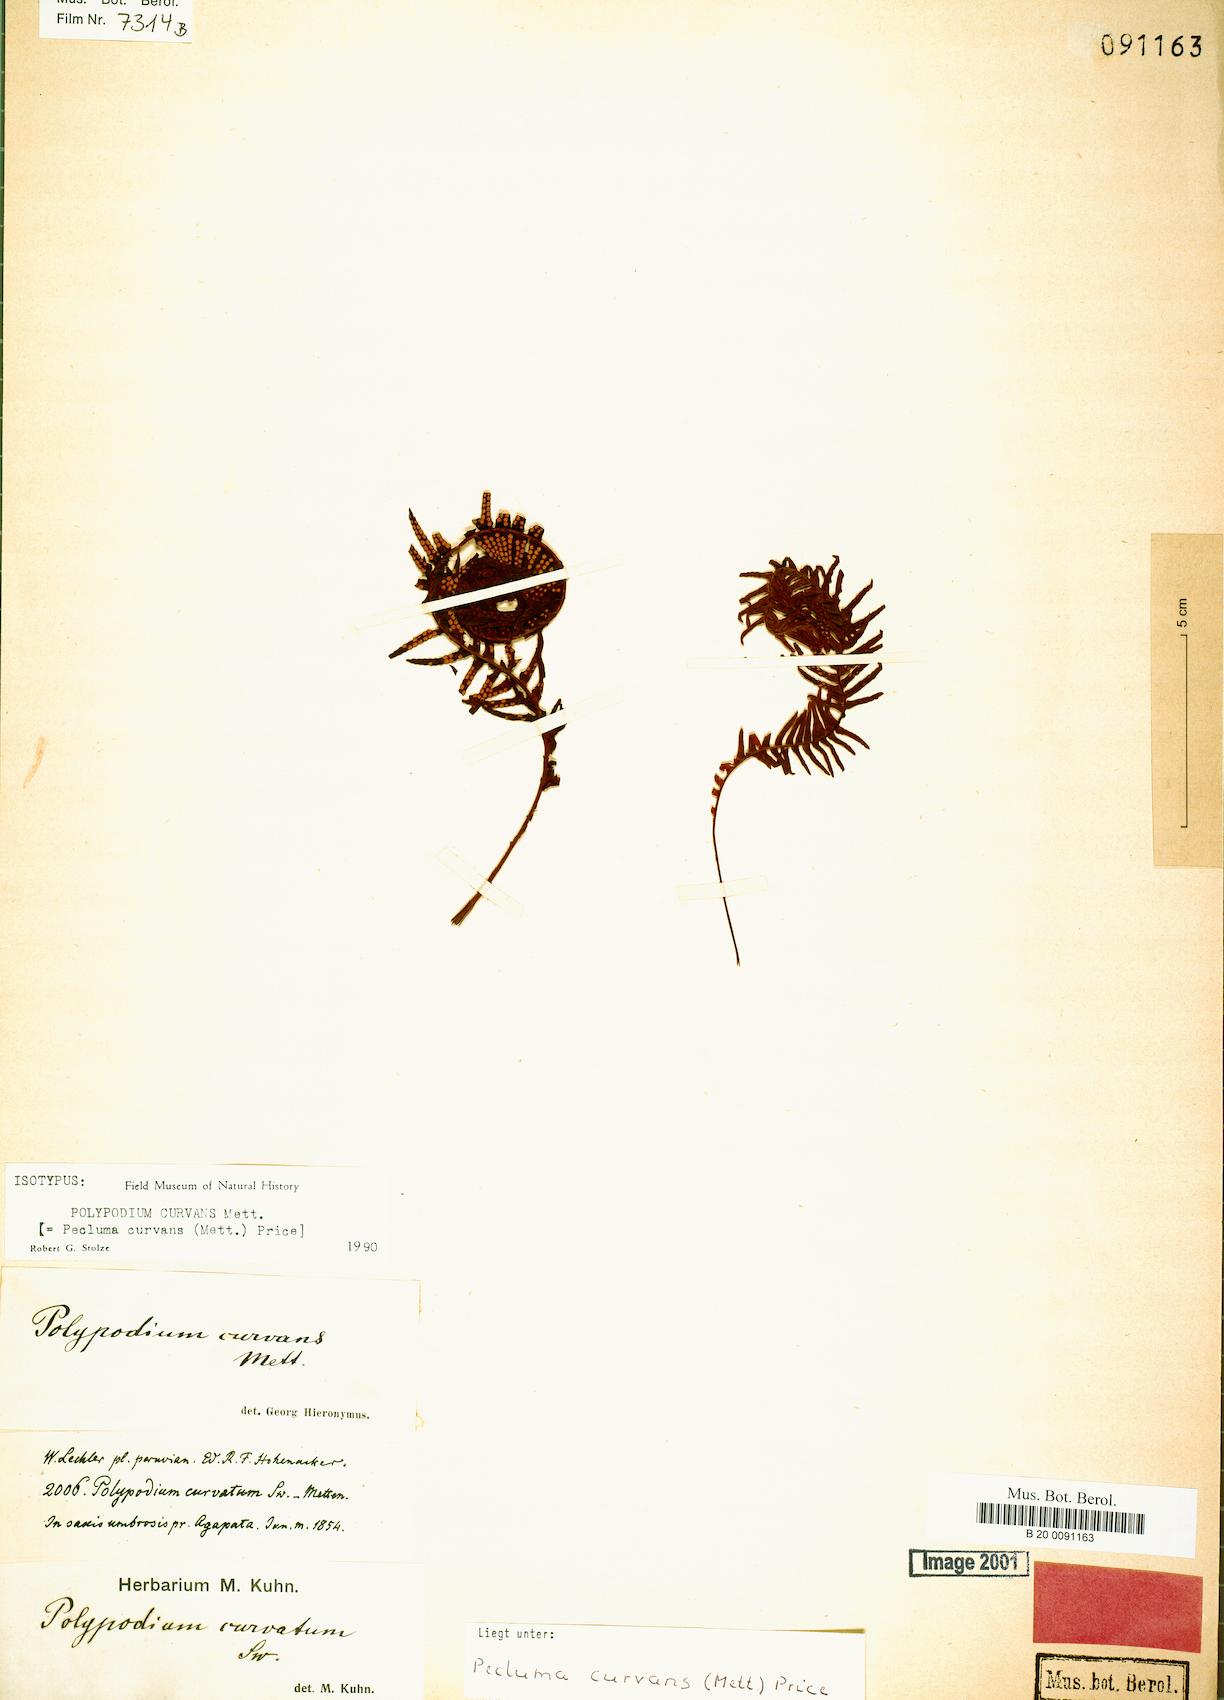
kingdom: Plantae
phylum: Tracheophyta
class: Polypodiopsida
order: Polypodiales
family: Polypodiaceae
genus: Pecluma
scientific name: Pecluma curvans
